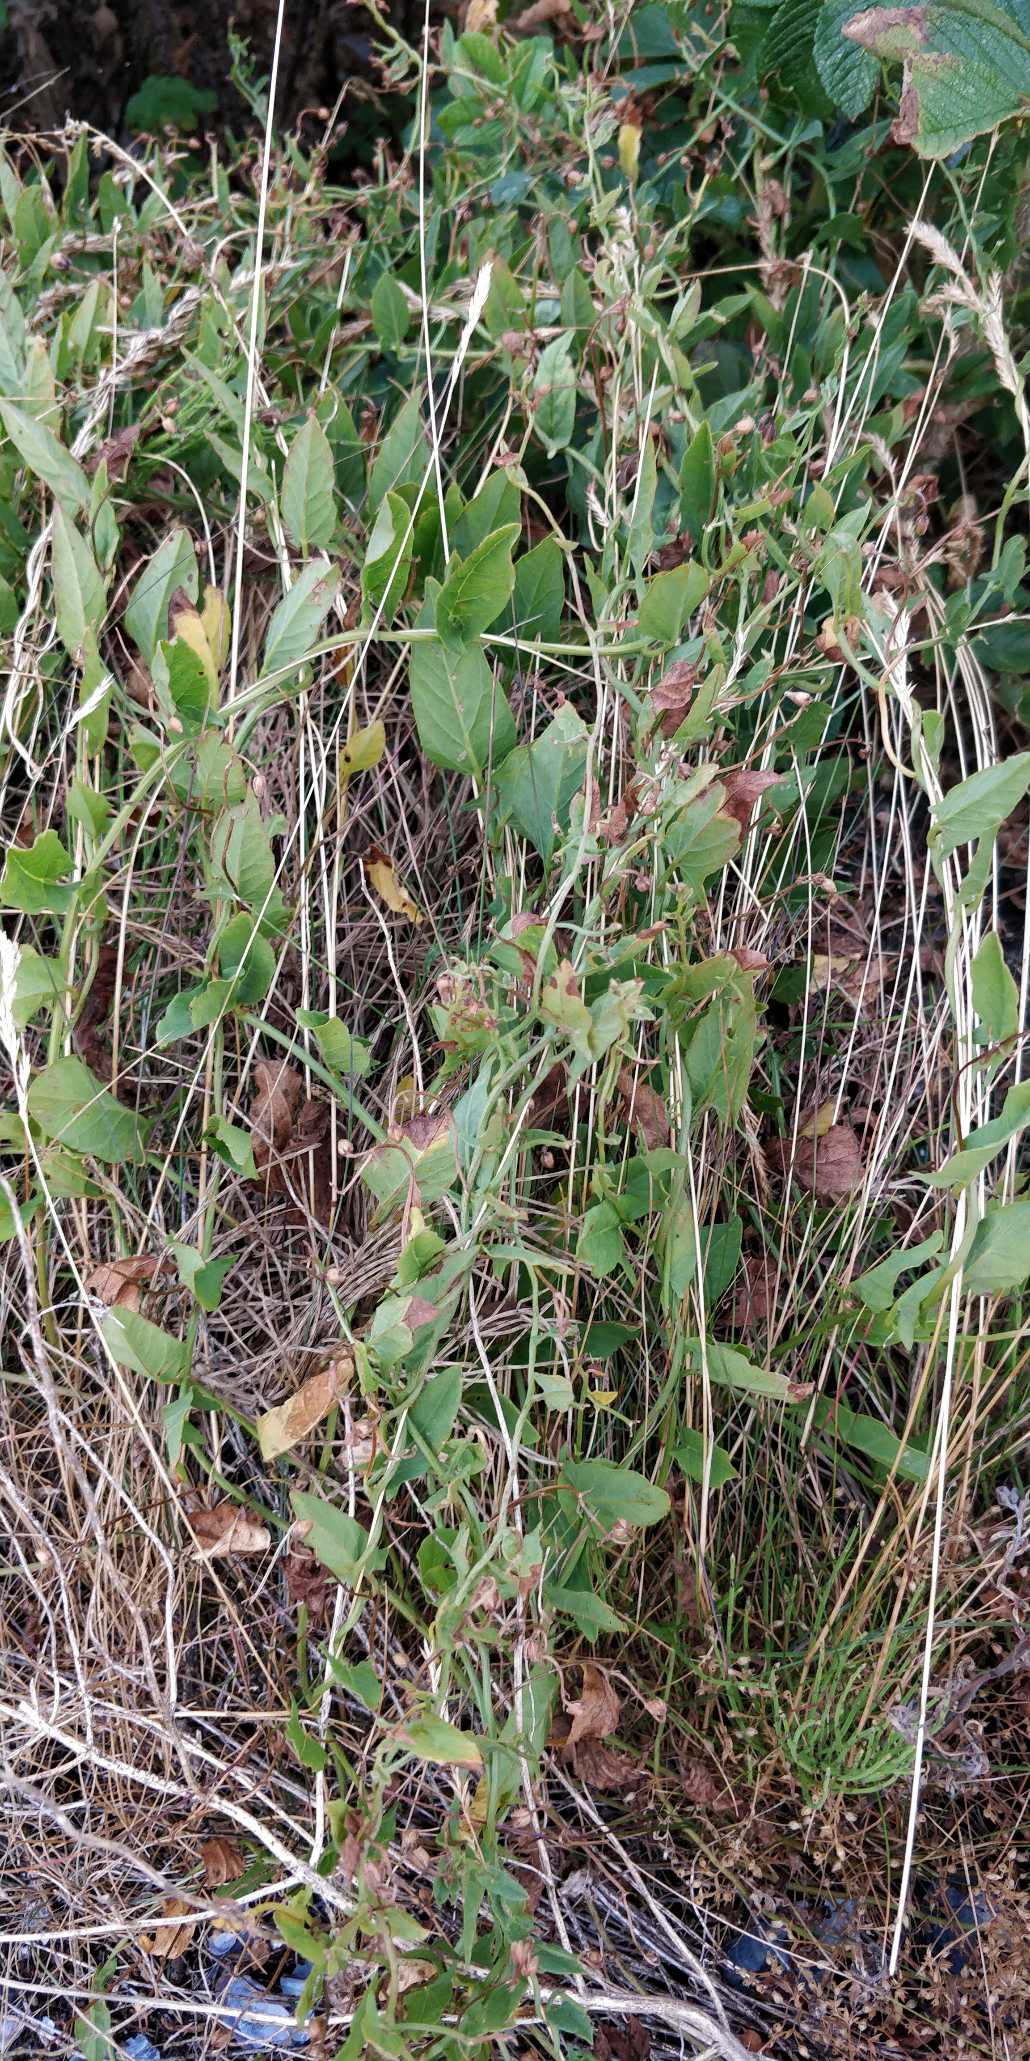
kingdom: Plantae
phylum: Tracheophyta
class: Magnoliopsida
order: Solanales
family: Convolvulaceae
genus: Convolvulus
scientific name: Convolvulus arvensis
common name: Ager-snerle
